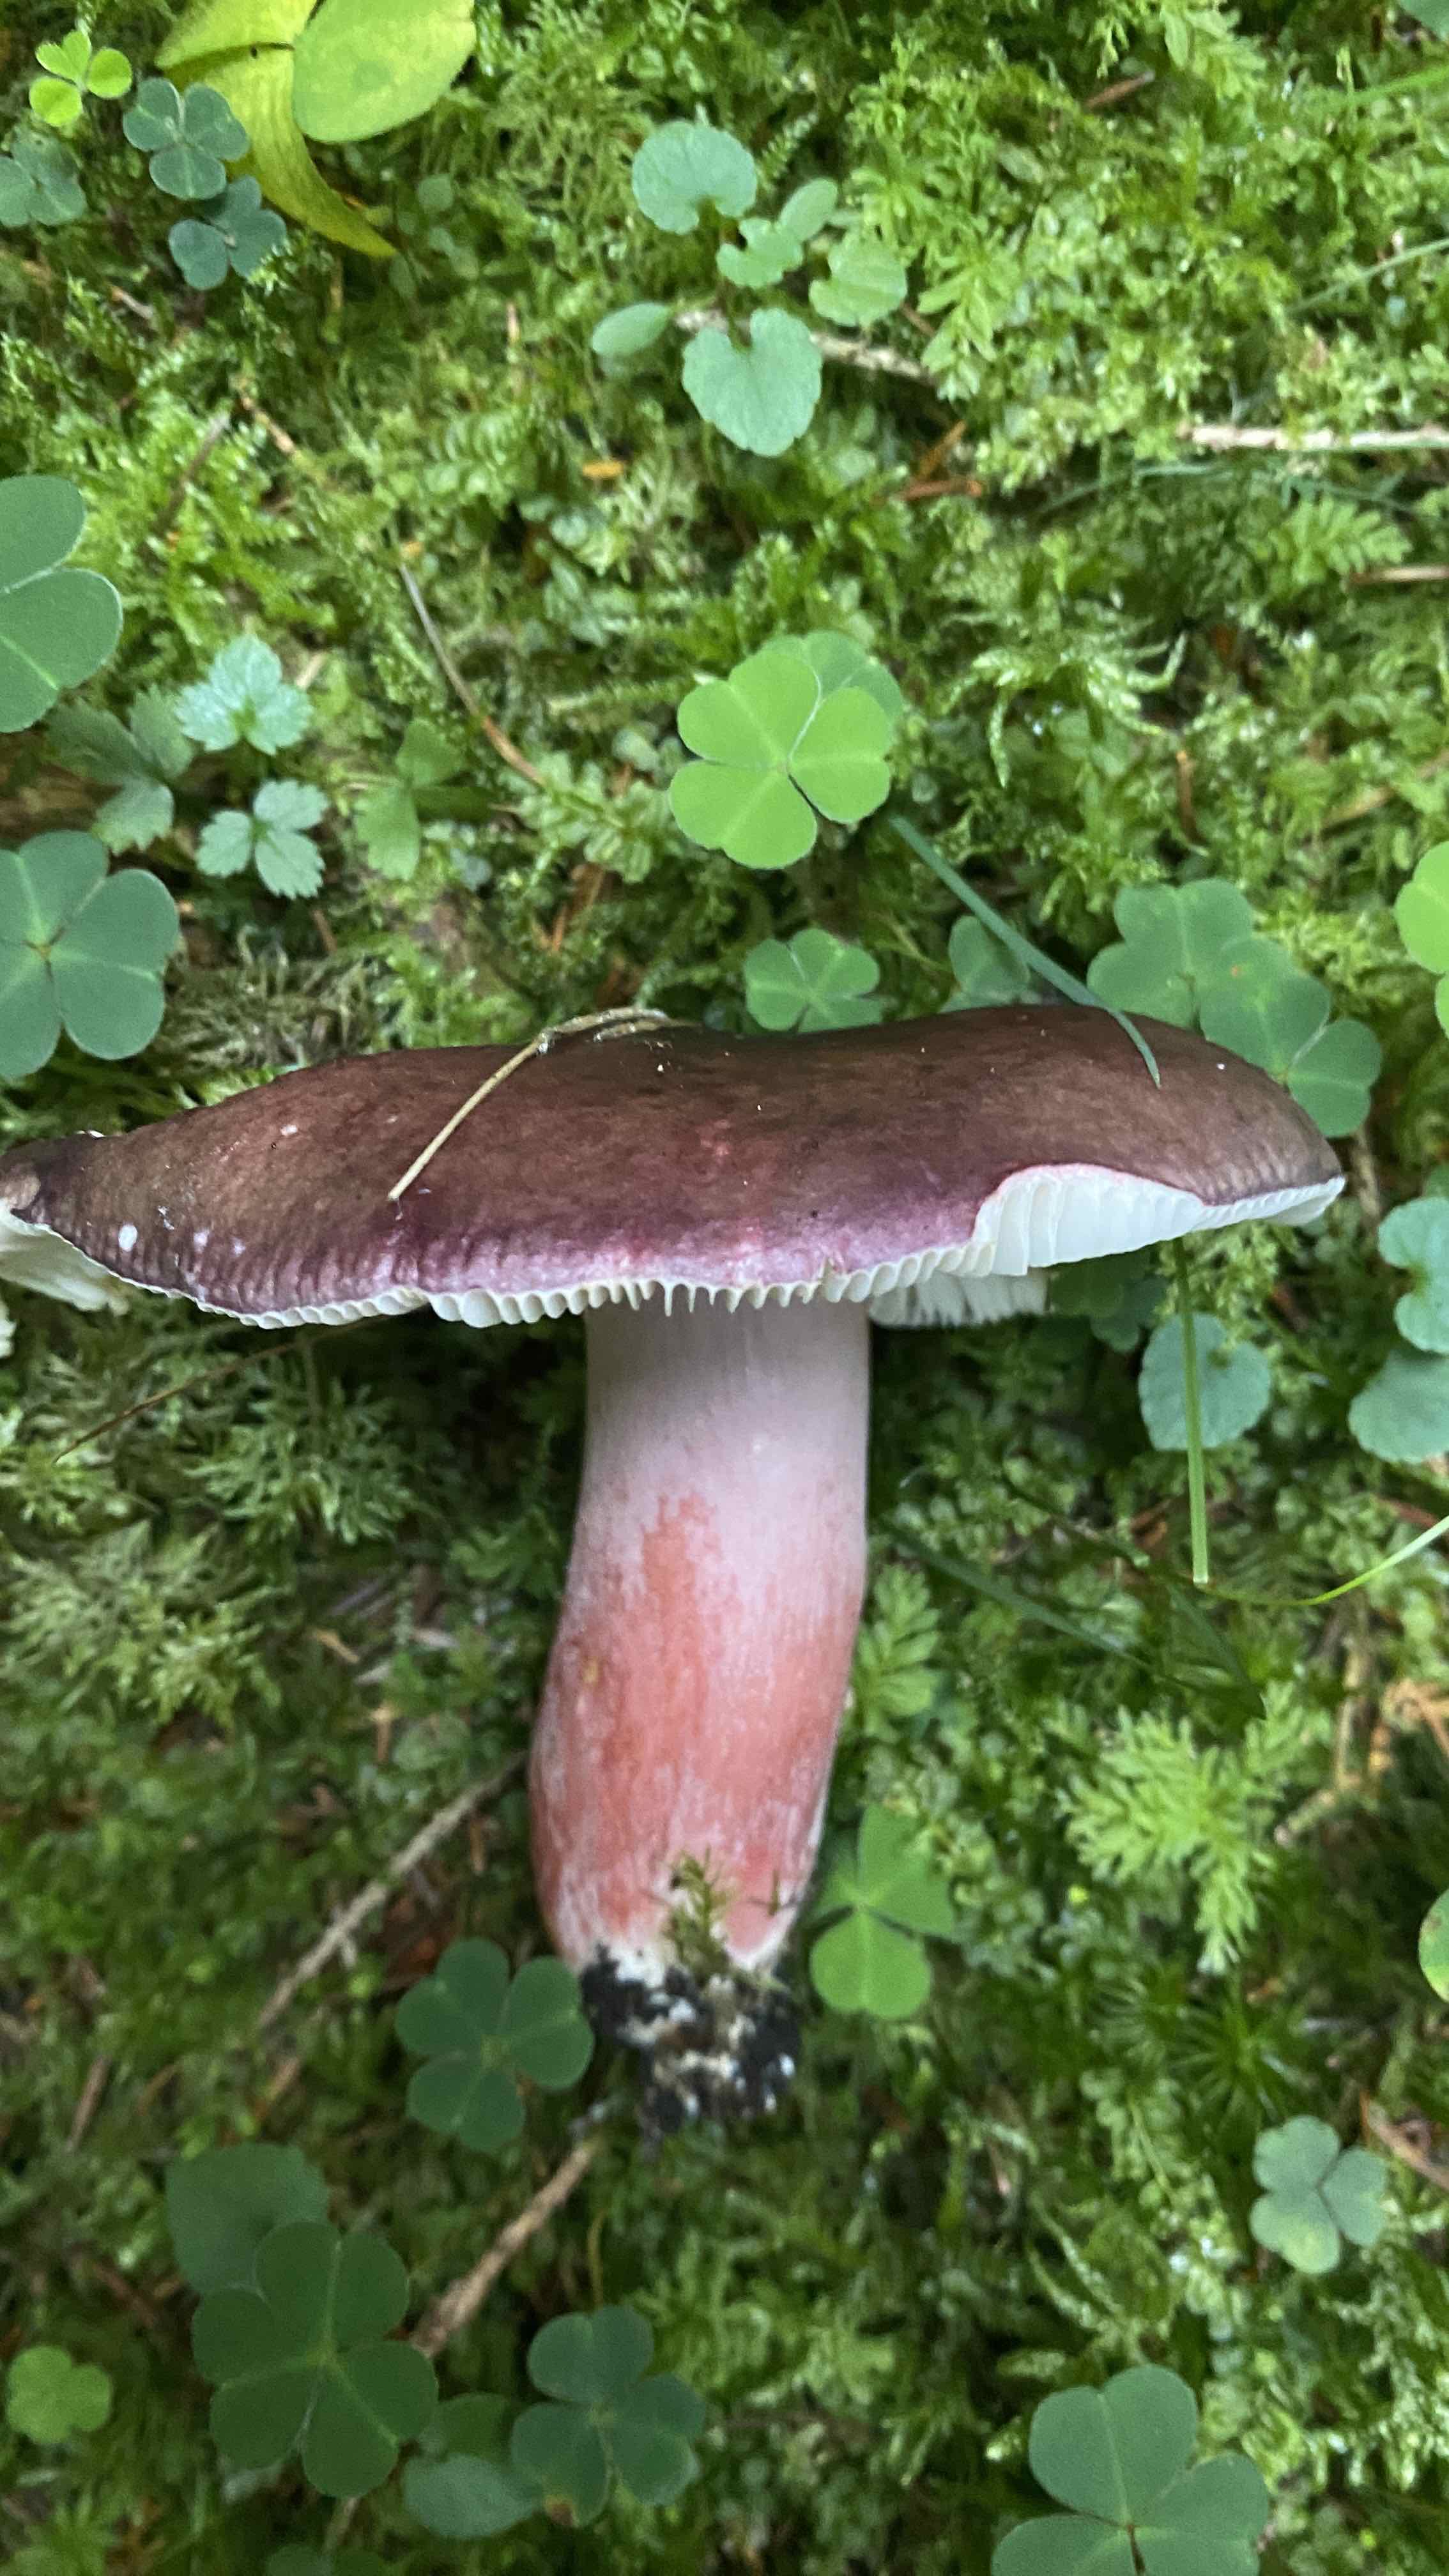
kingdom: Fungi
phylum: Basidiomycota
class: Agaricomycetes
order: Russulales
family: Russulaceae
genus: Russula
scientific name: Russula queletii
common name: Quélets skørhat
